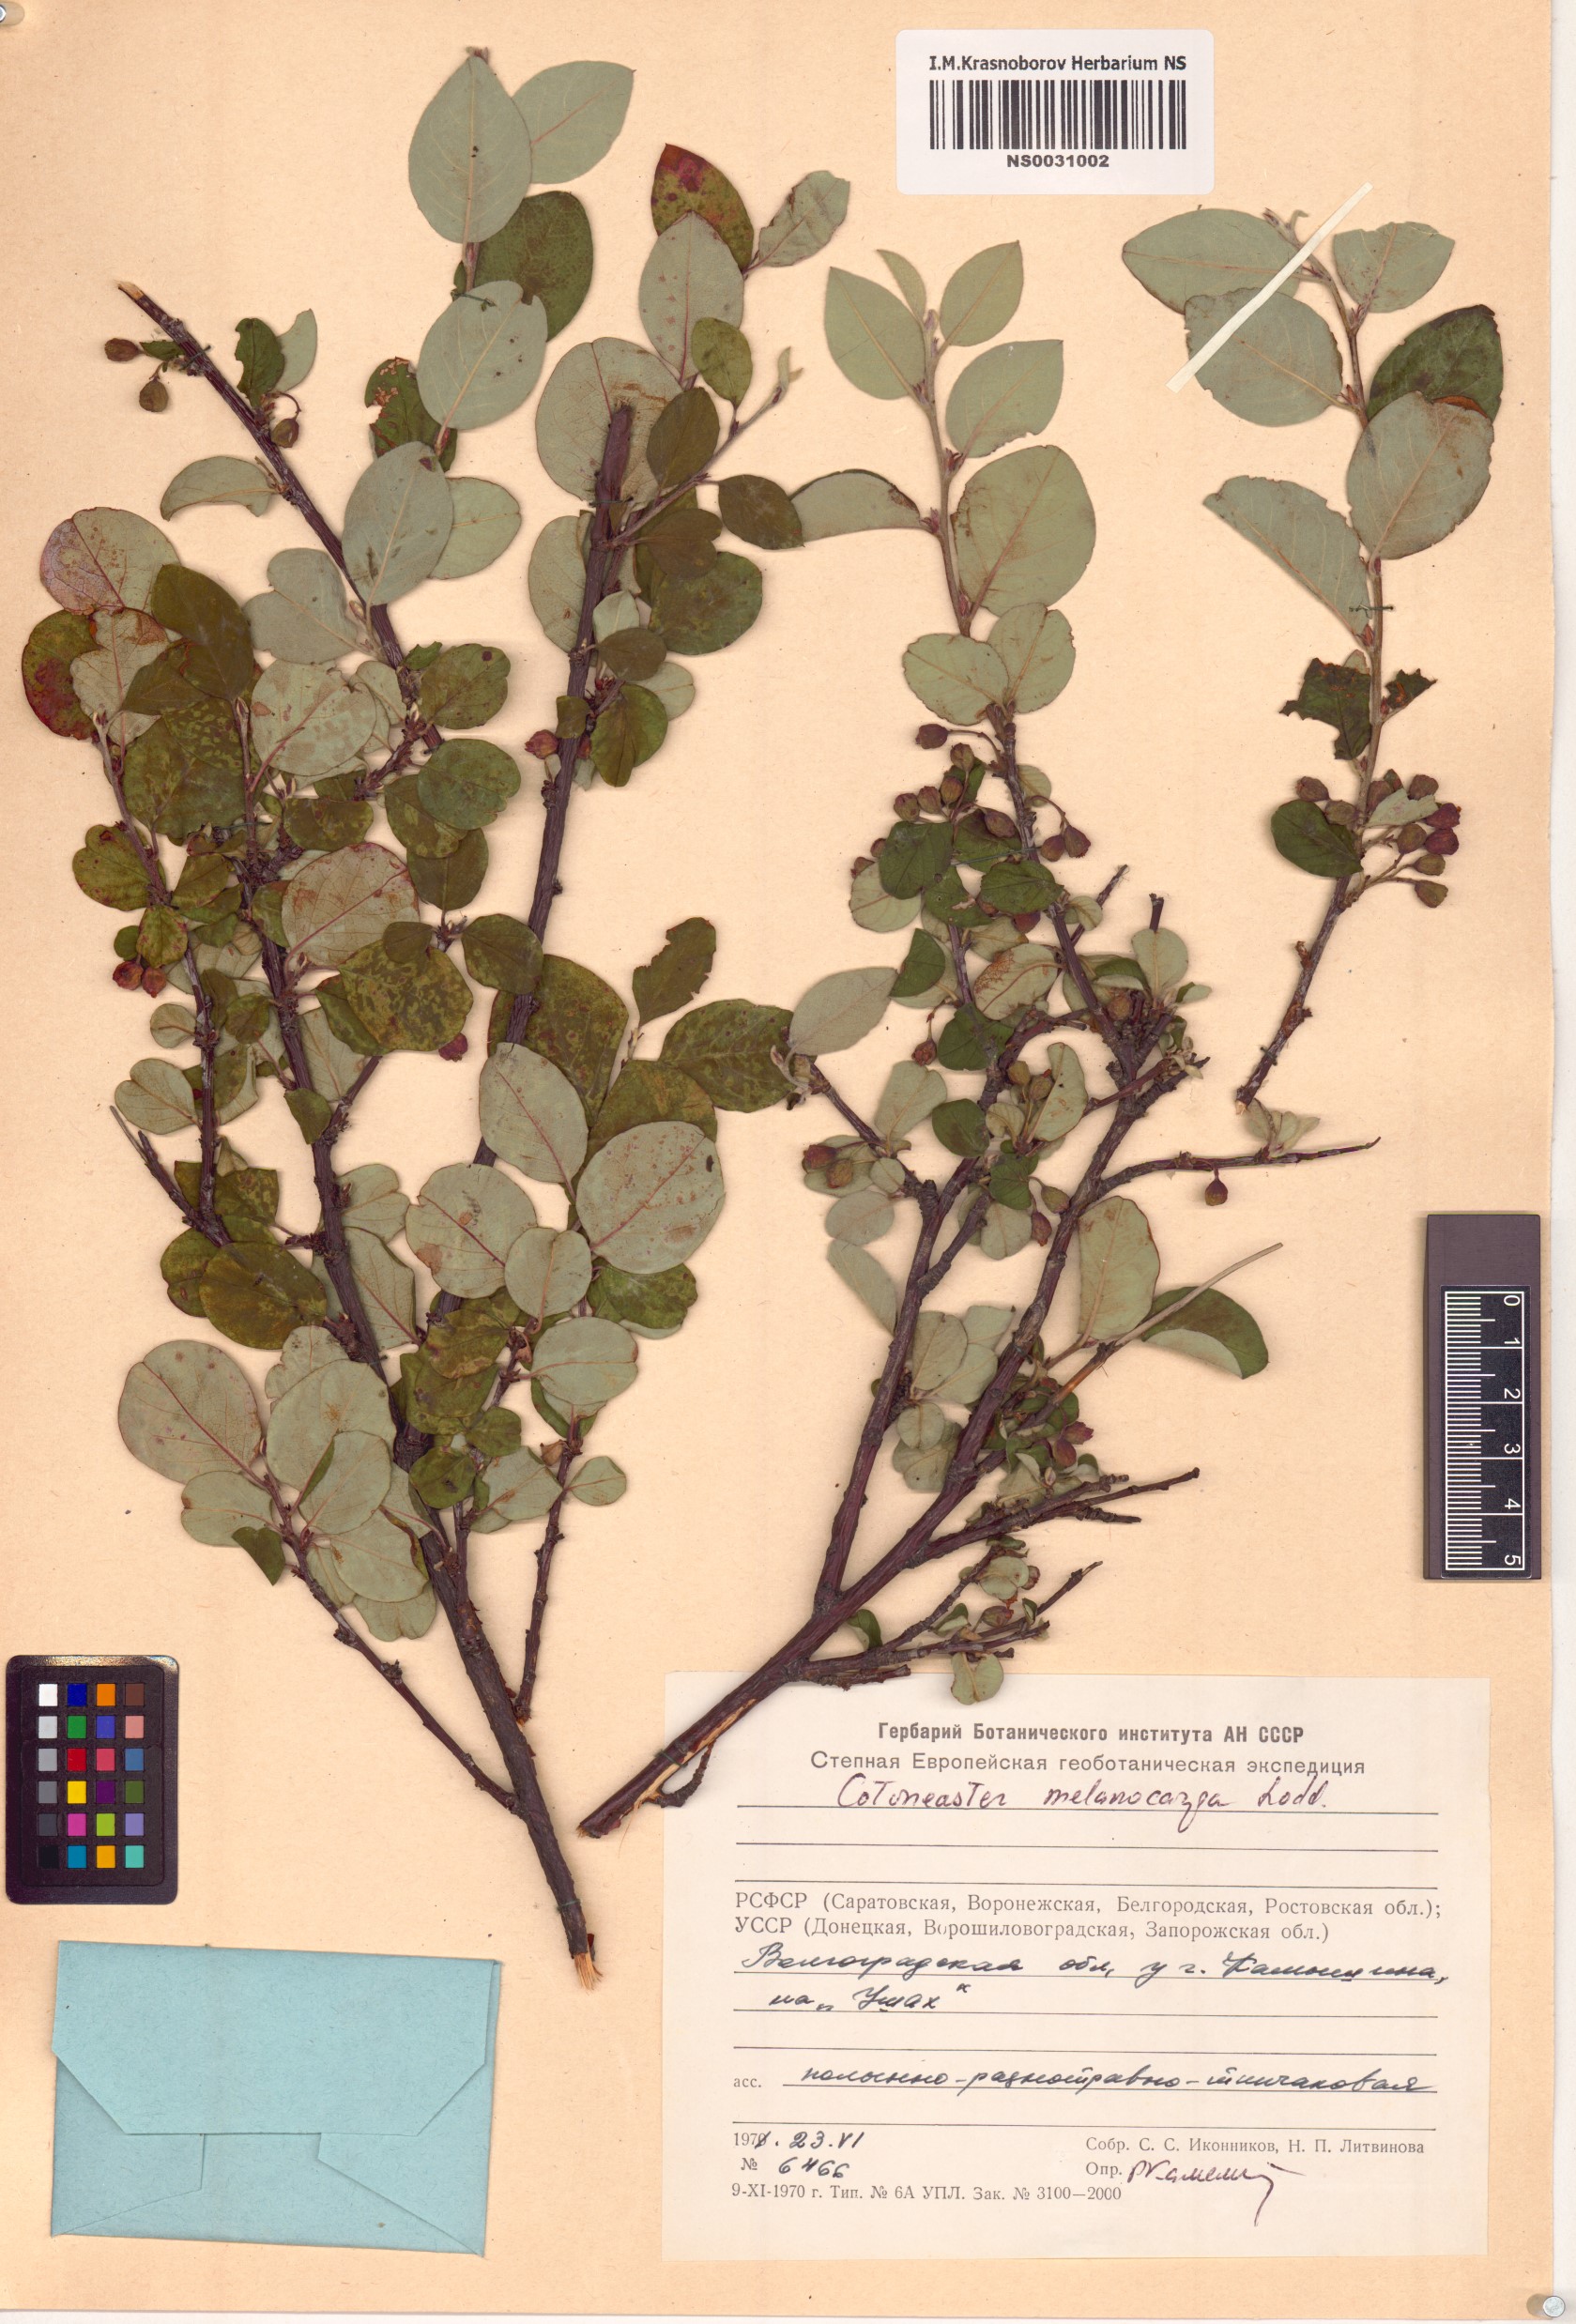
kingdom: Plantae
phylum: Tracheophyta
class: Magnoliopsida
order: Rosales
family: Rosaceae
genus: Cotoneaster
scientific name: Cotoneaster melanocarpus
